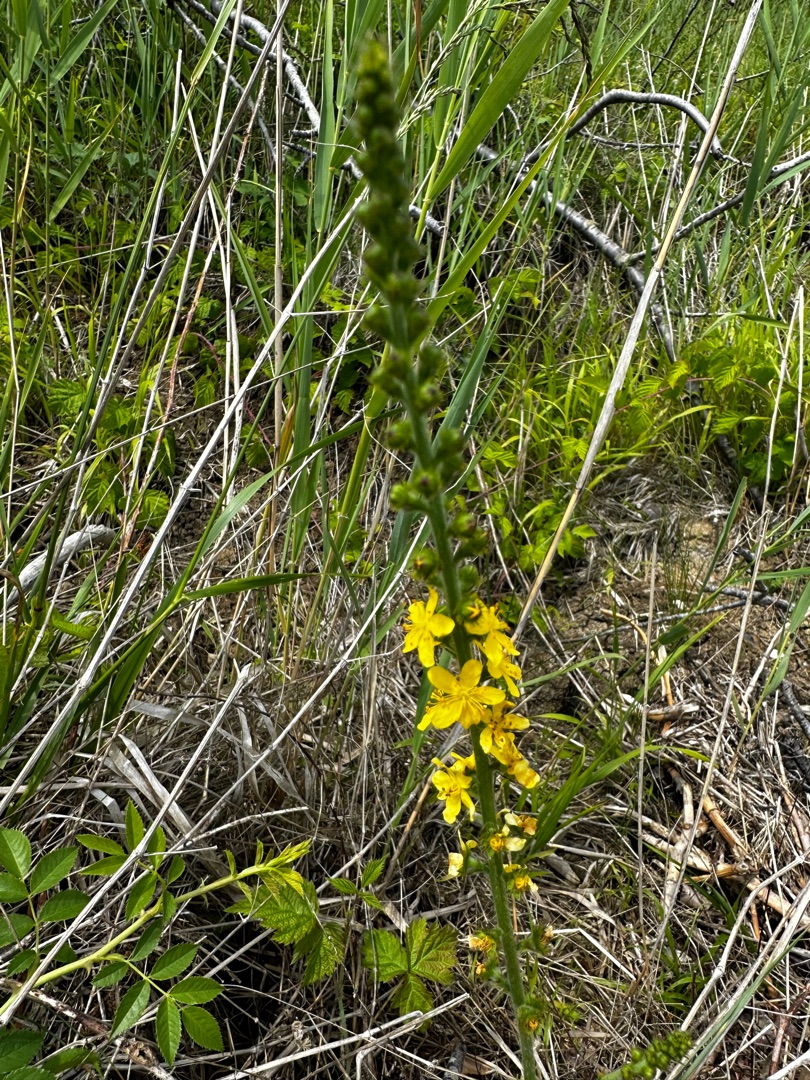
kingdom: Plantae
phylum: Tracheophyta
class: Magnoliopsida
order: Rosales
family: Rosaceae
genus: Agrimonia
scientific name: Agrimonia eupatoria
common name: Almindelig agermåne
